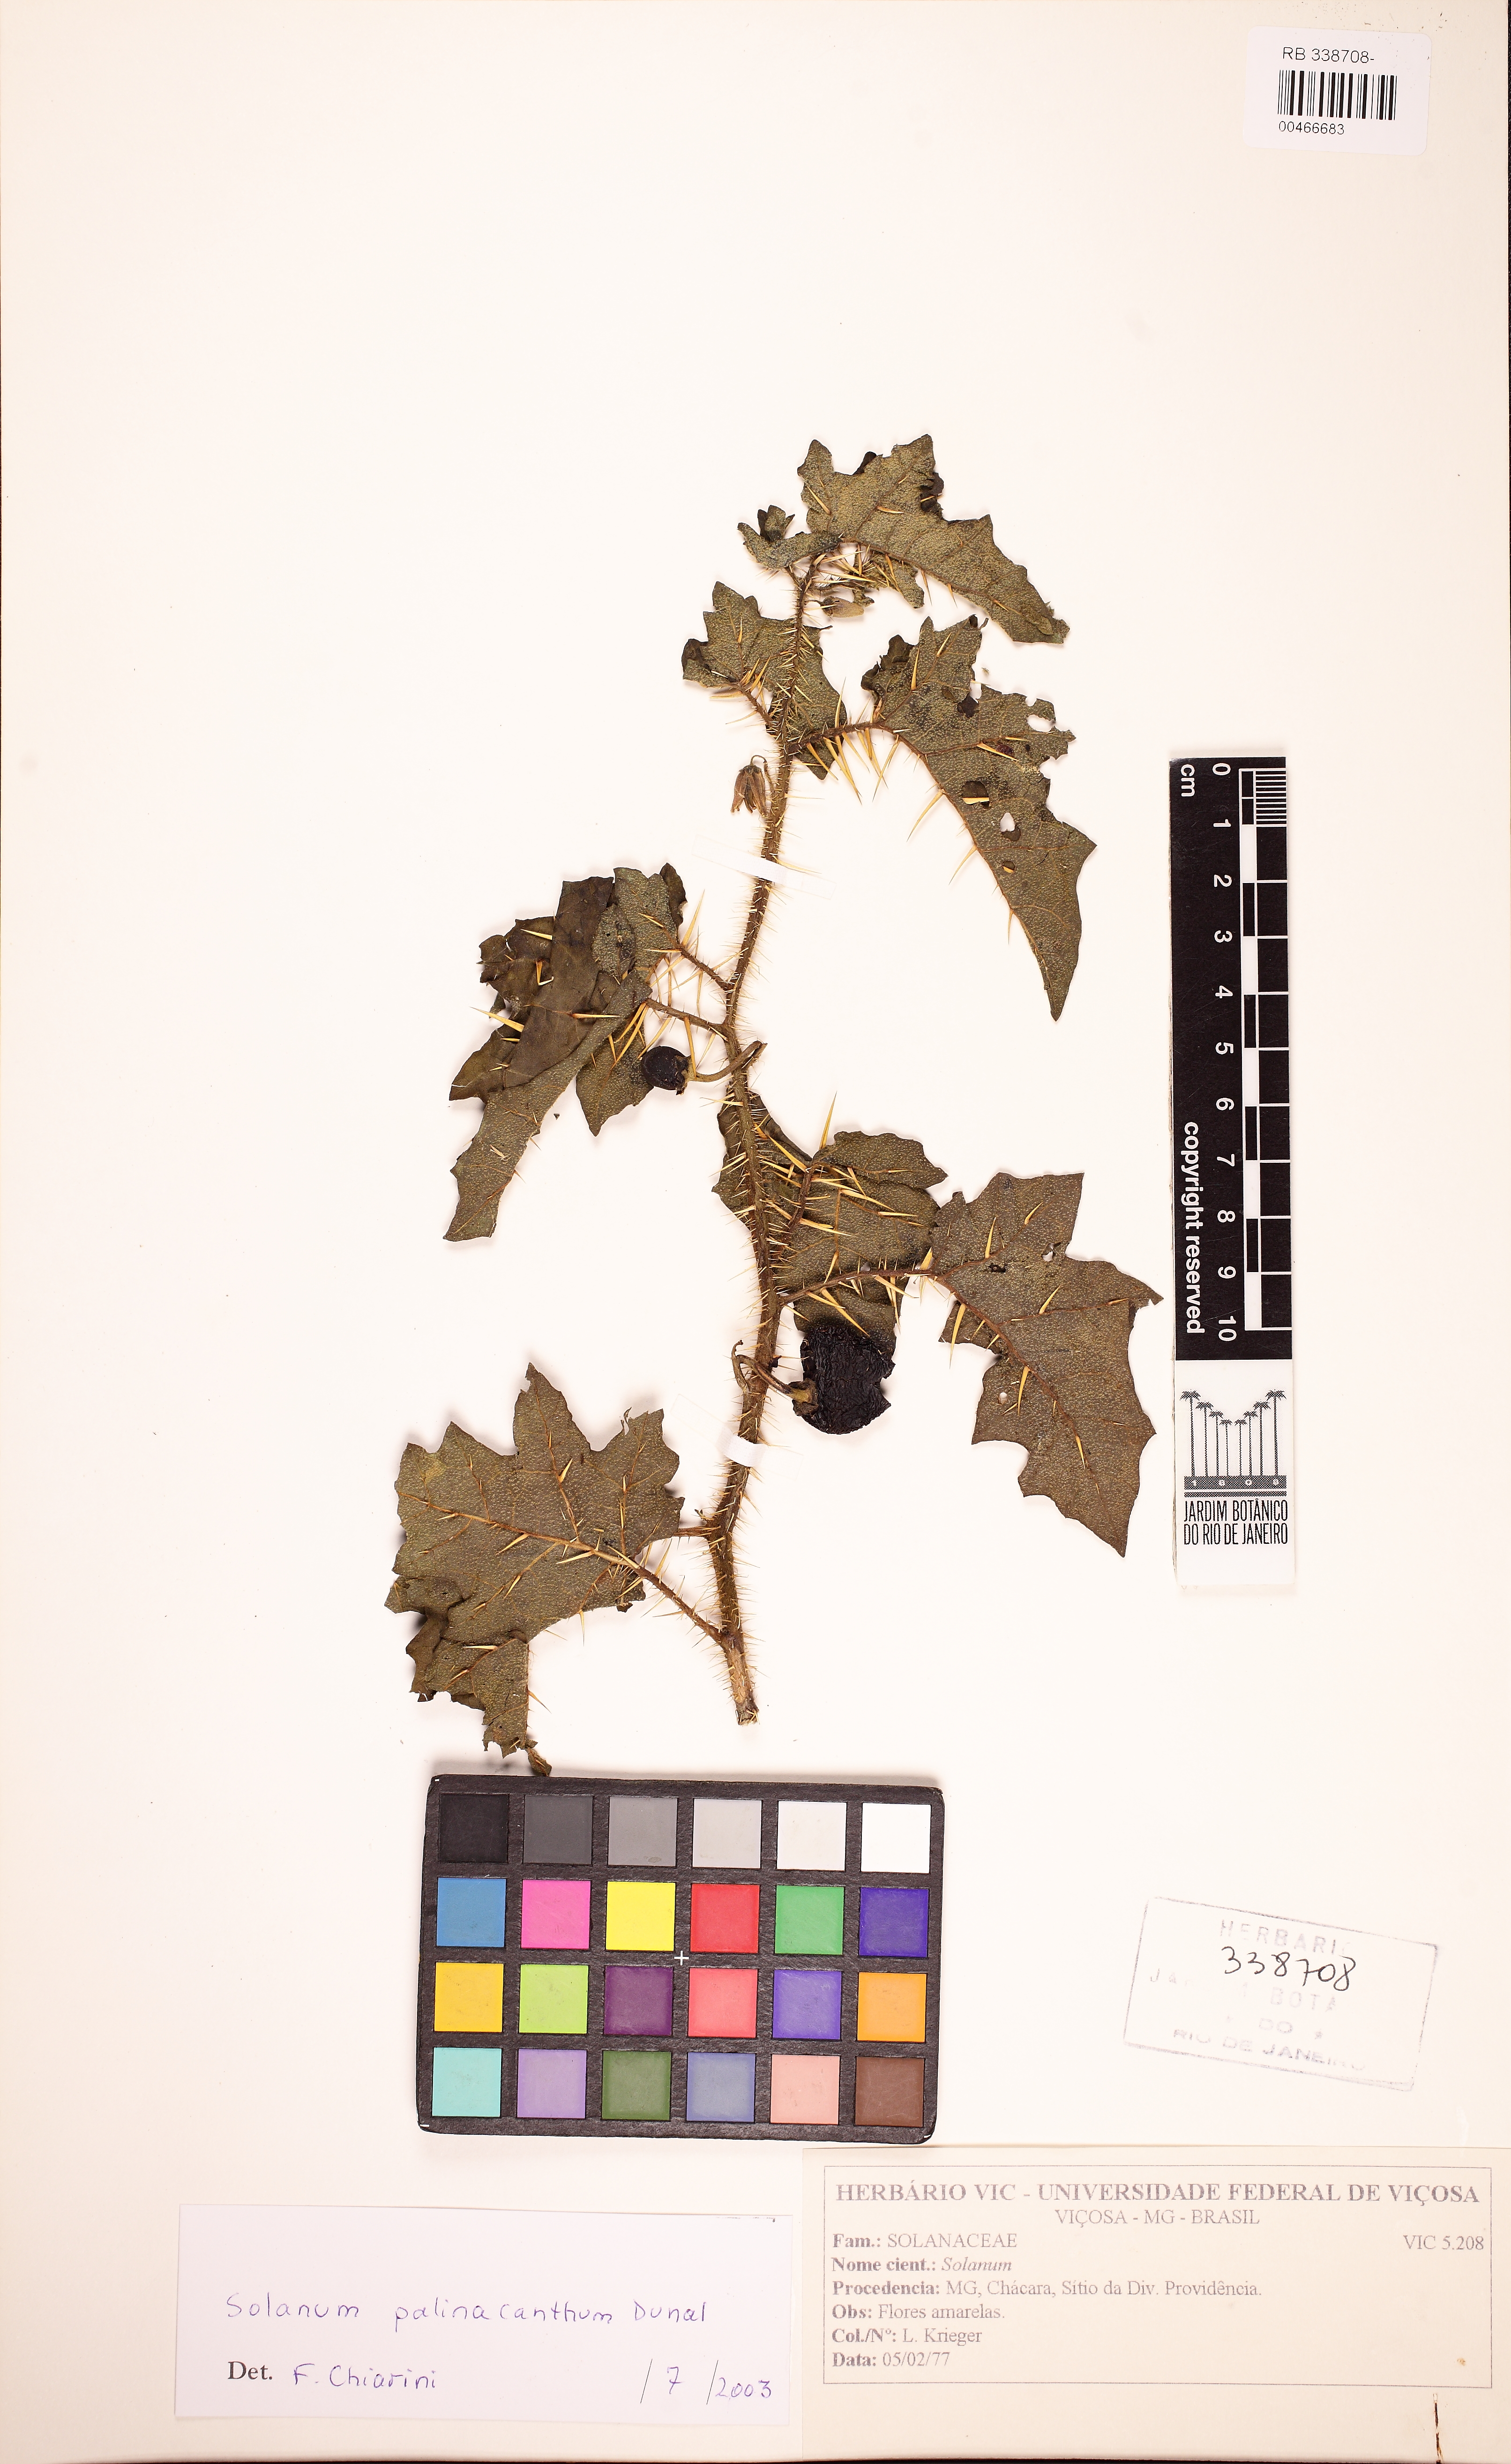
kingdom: Plantae
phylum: Tracheophyta
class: Magnoliopsida
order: Solanales
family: Solanaceae
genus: Solanum
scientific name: Solanum palinacanthum
